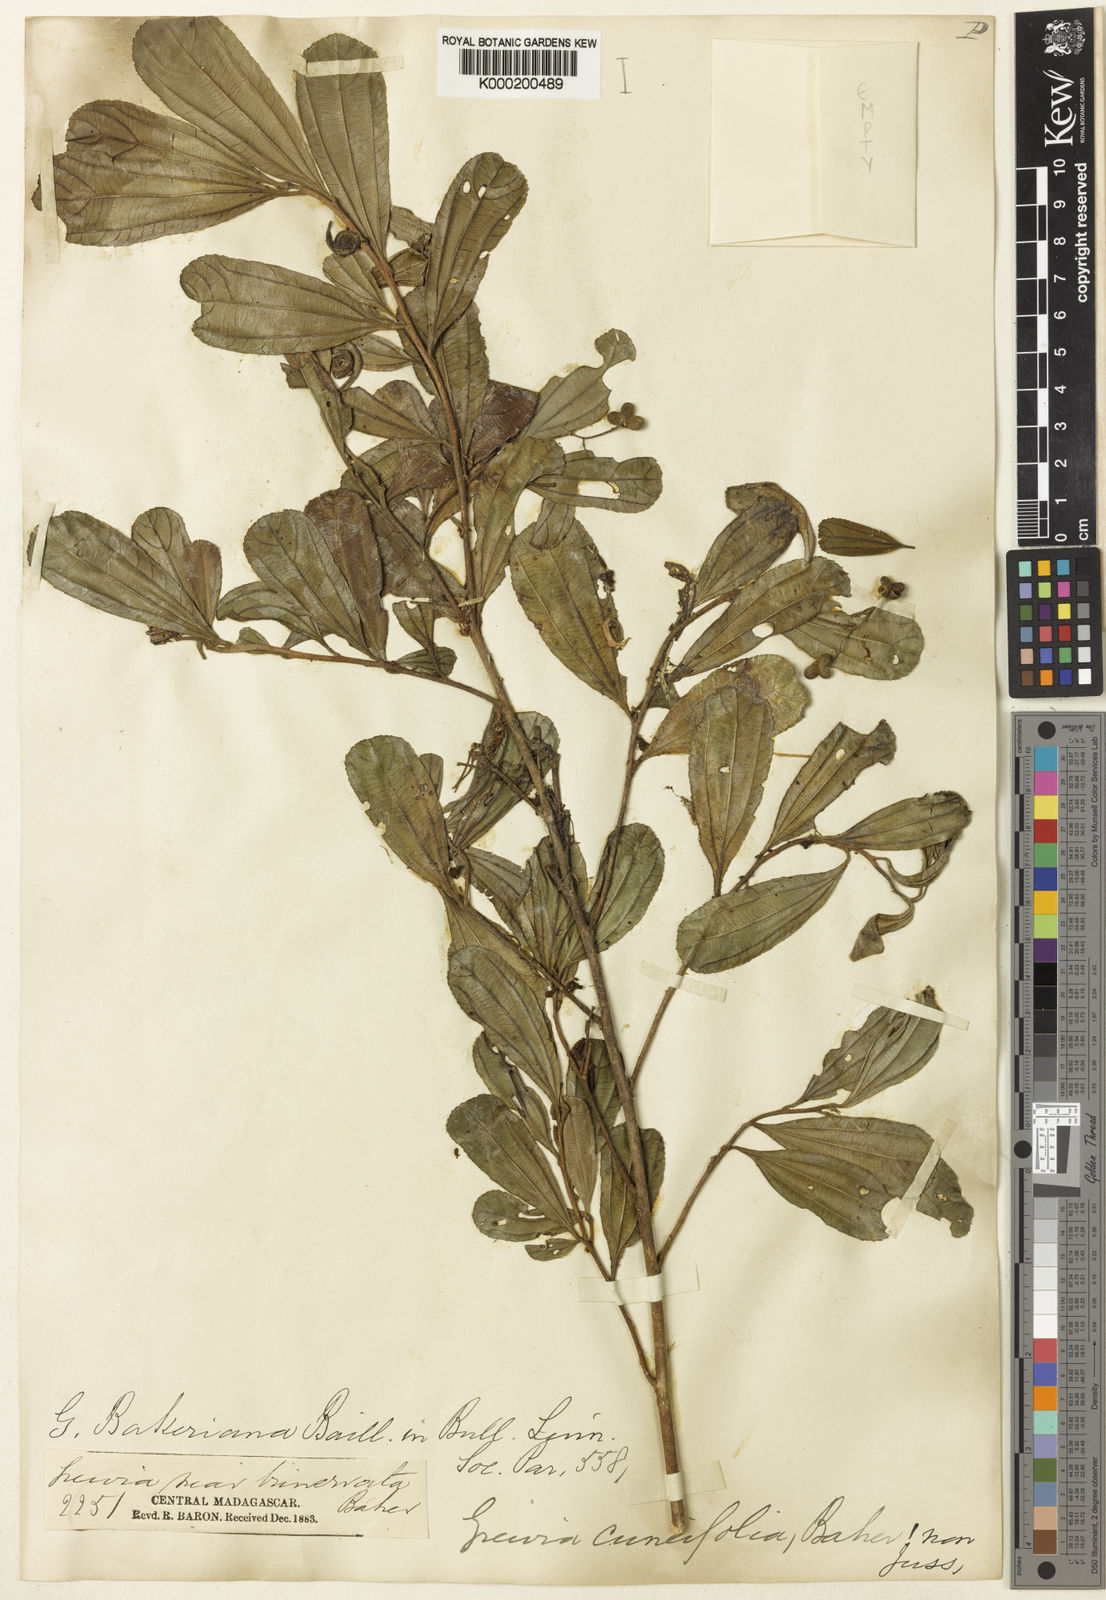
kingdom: Plantae
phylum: Tracheophyta
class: Magnoliopsida
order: Malvales
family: Malvaceae
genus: Grewia
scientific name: Grewia bakeriana
